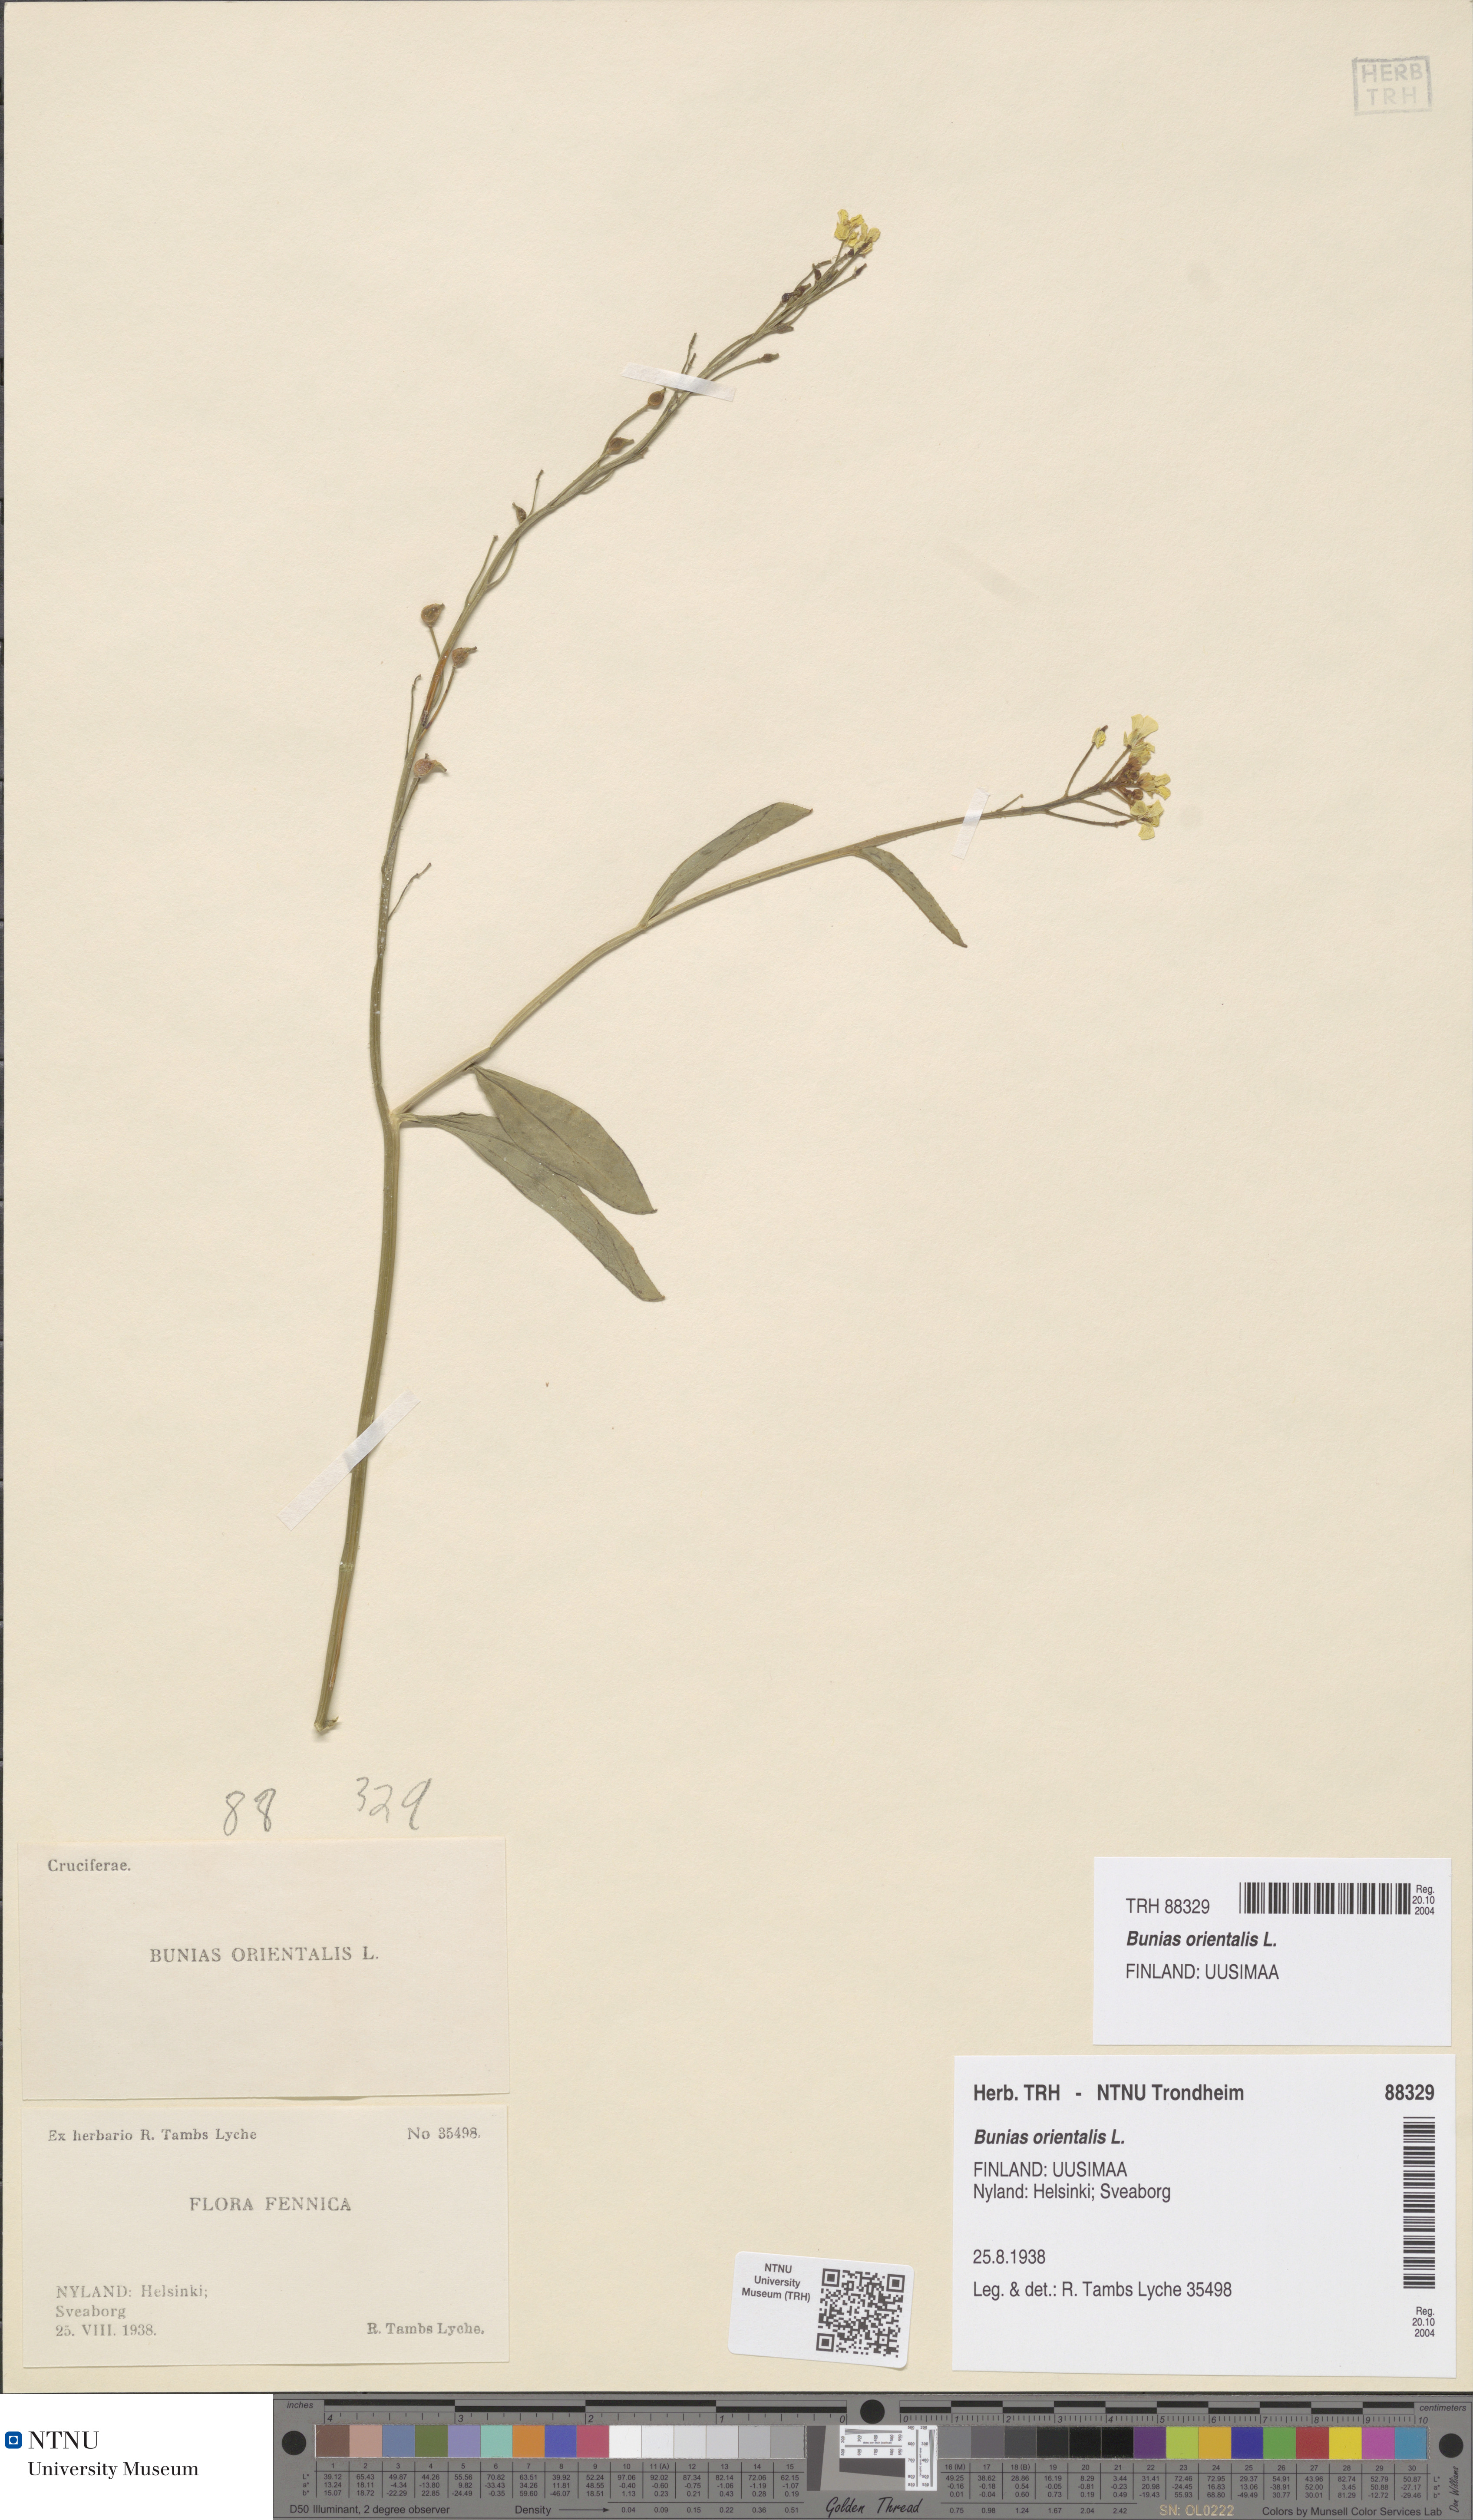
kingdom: Plantae
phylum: Tracheophyta
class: Magnoliopsida
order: Brassicales
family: Brassicaceae
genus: Bunias
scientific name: Bunias orientalis
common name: Warty-cabbage
